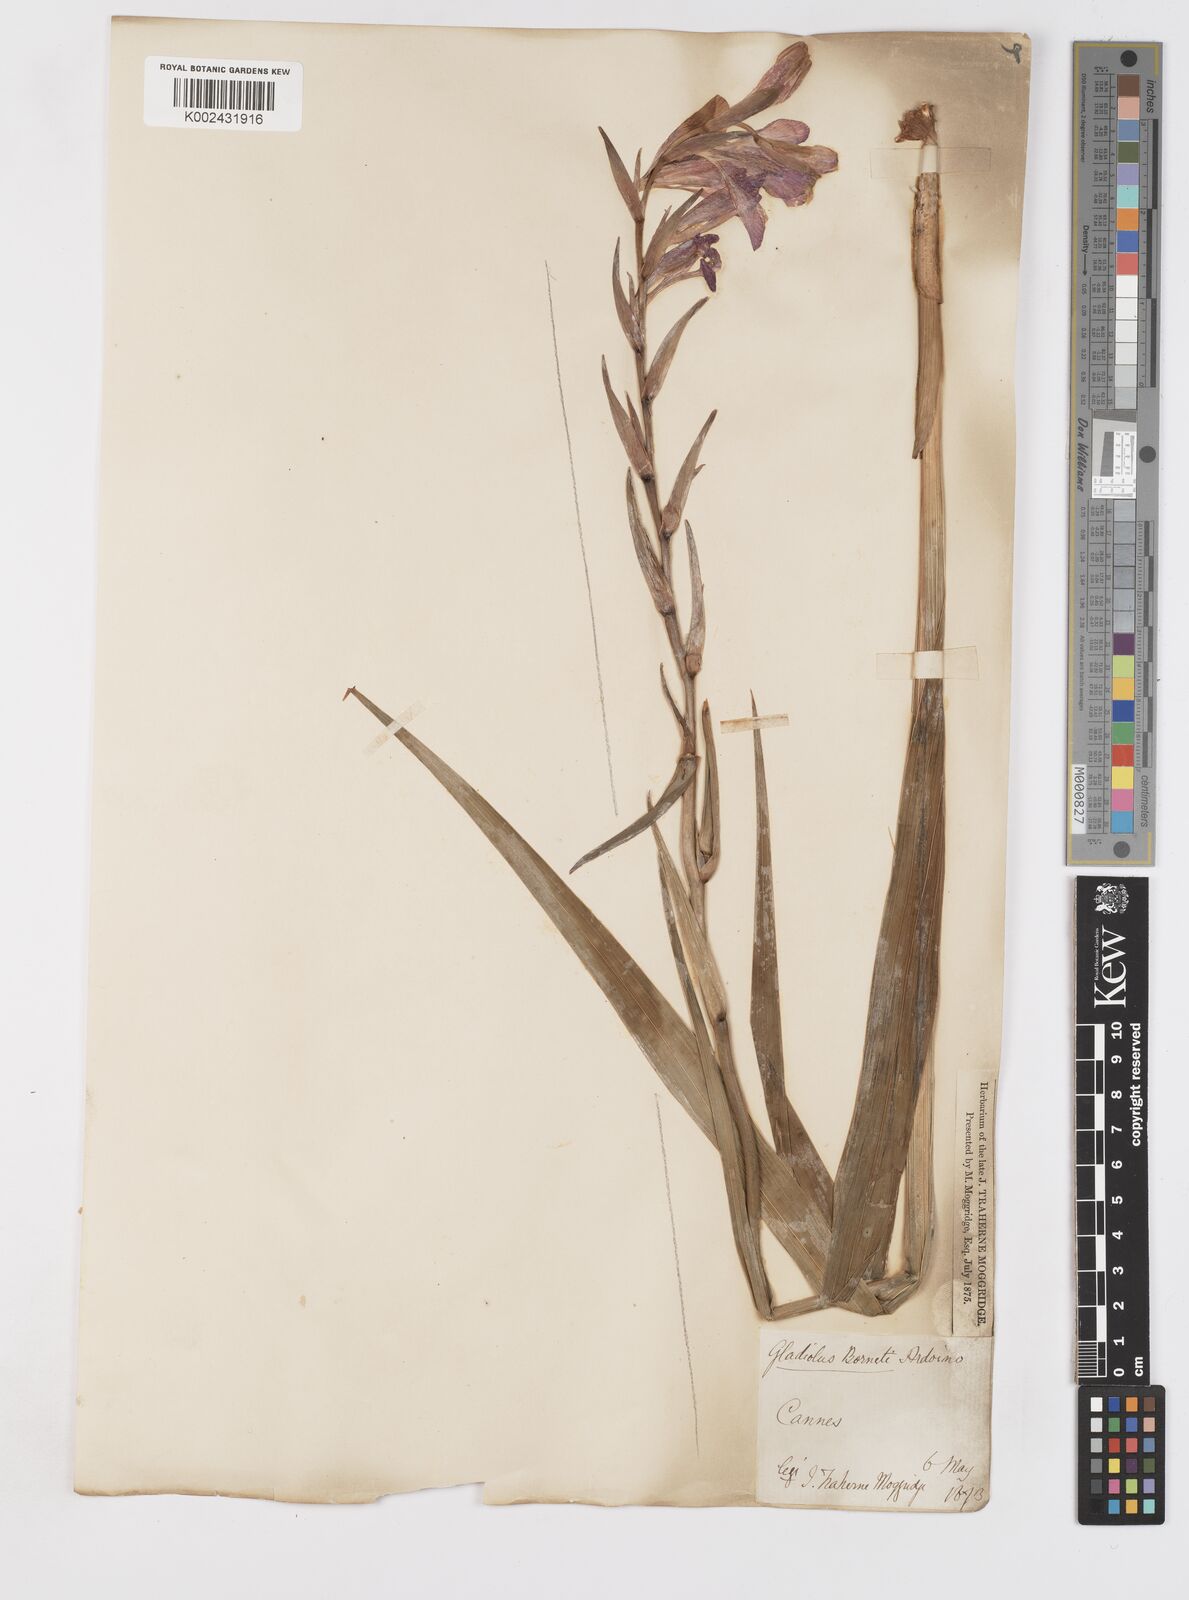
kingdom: Plantae
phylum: Tracheophyta
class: Liliopsida
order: Asparagales
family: Iridaceae
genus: Gladiolus
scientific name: Gladiolus italicus
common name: Field gladiolus
